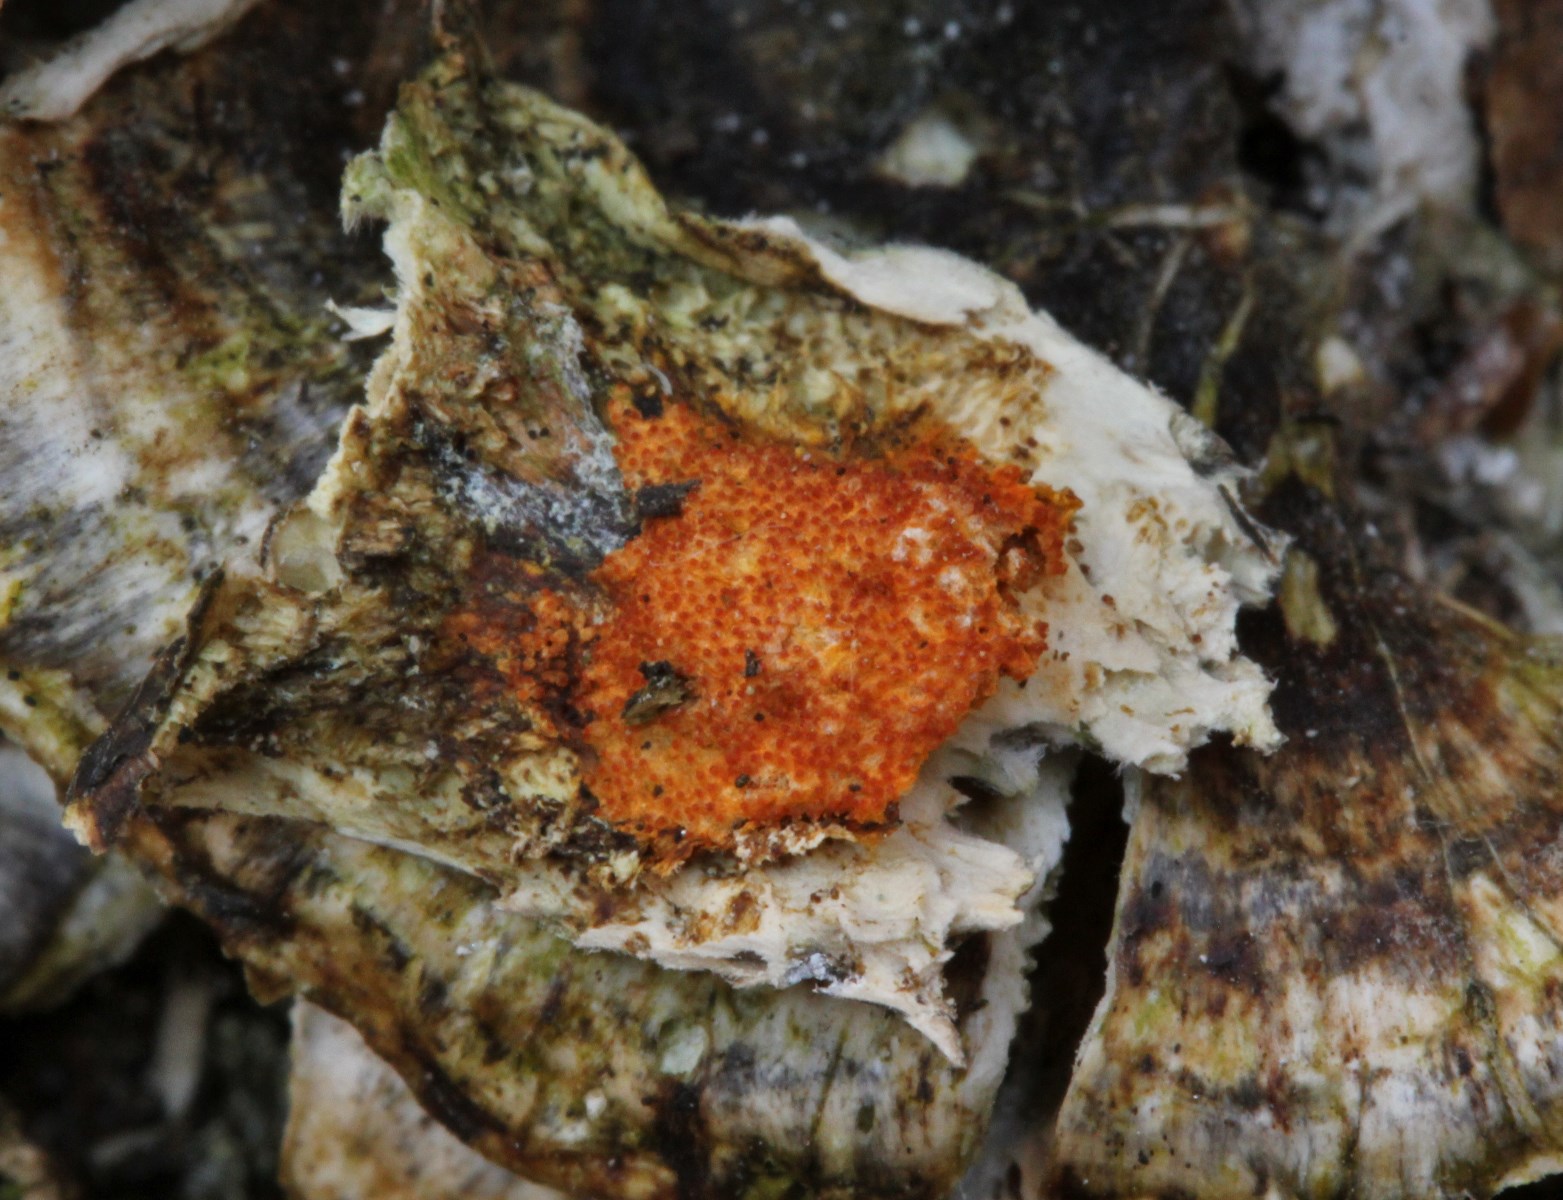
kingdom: Fungi
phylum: Ascomycota
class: Sordariomycetes
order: Hypocreales
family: Hypocreaceae
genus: Hypomyces
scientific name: Hypomyces aurantius
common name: almindelig snylteskorpe
